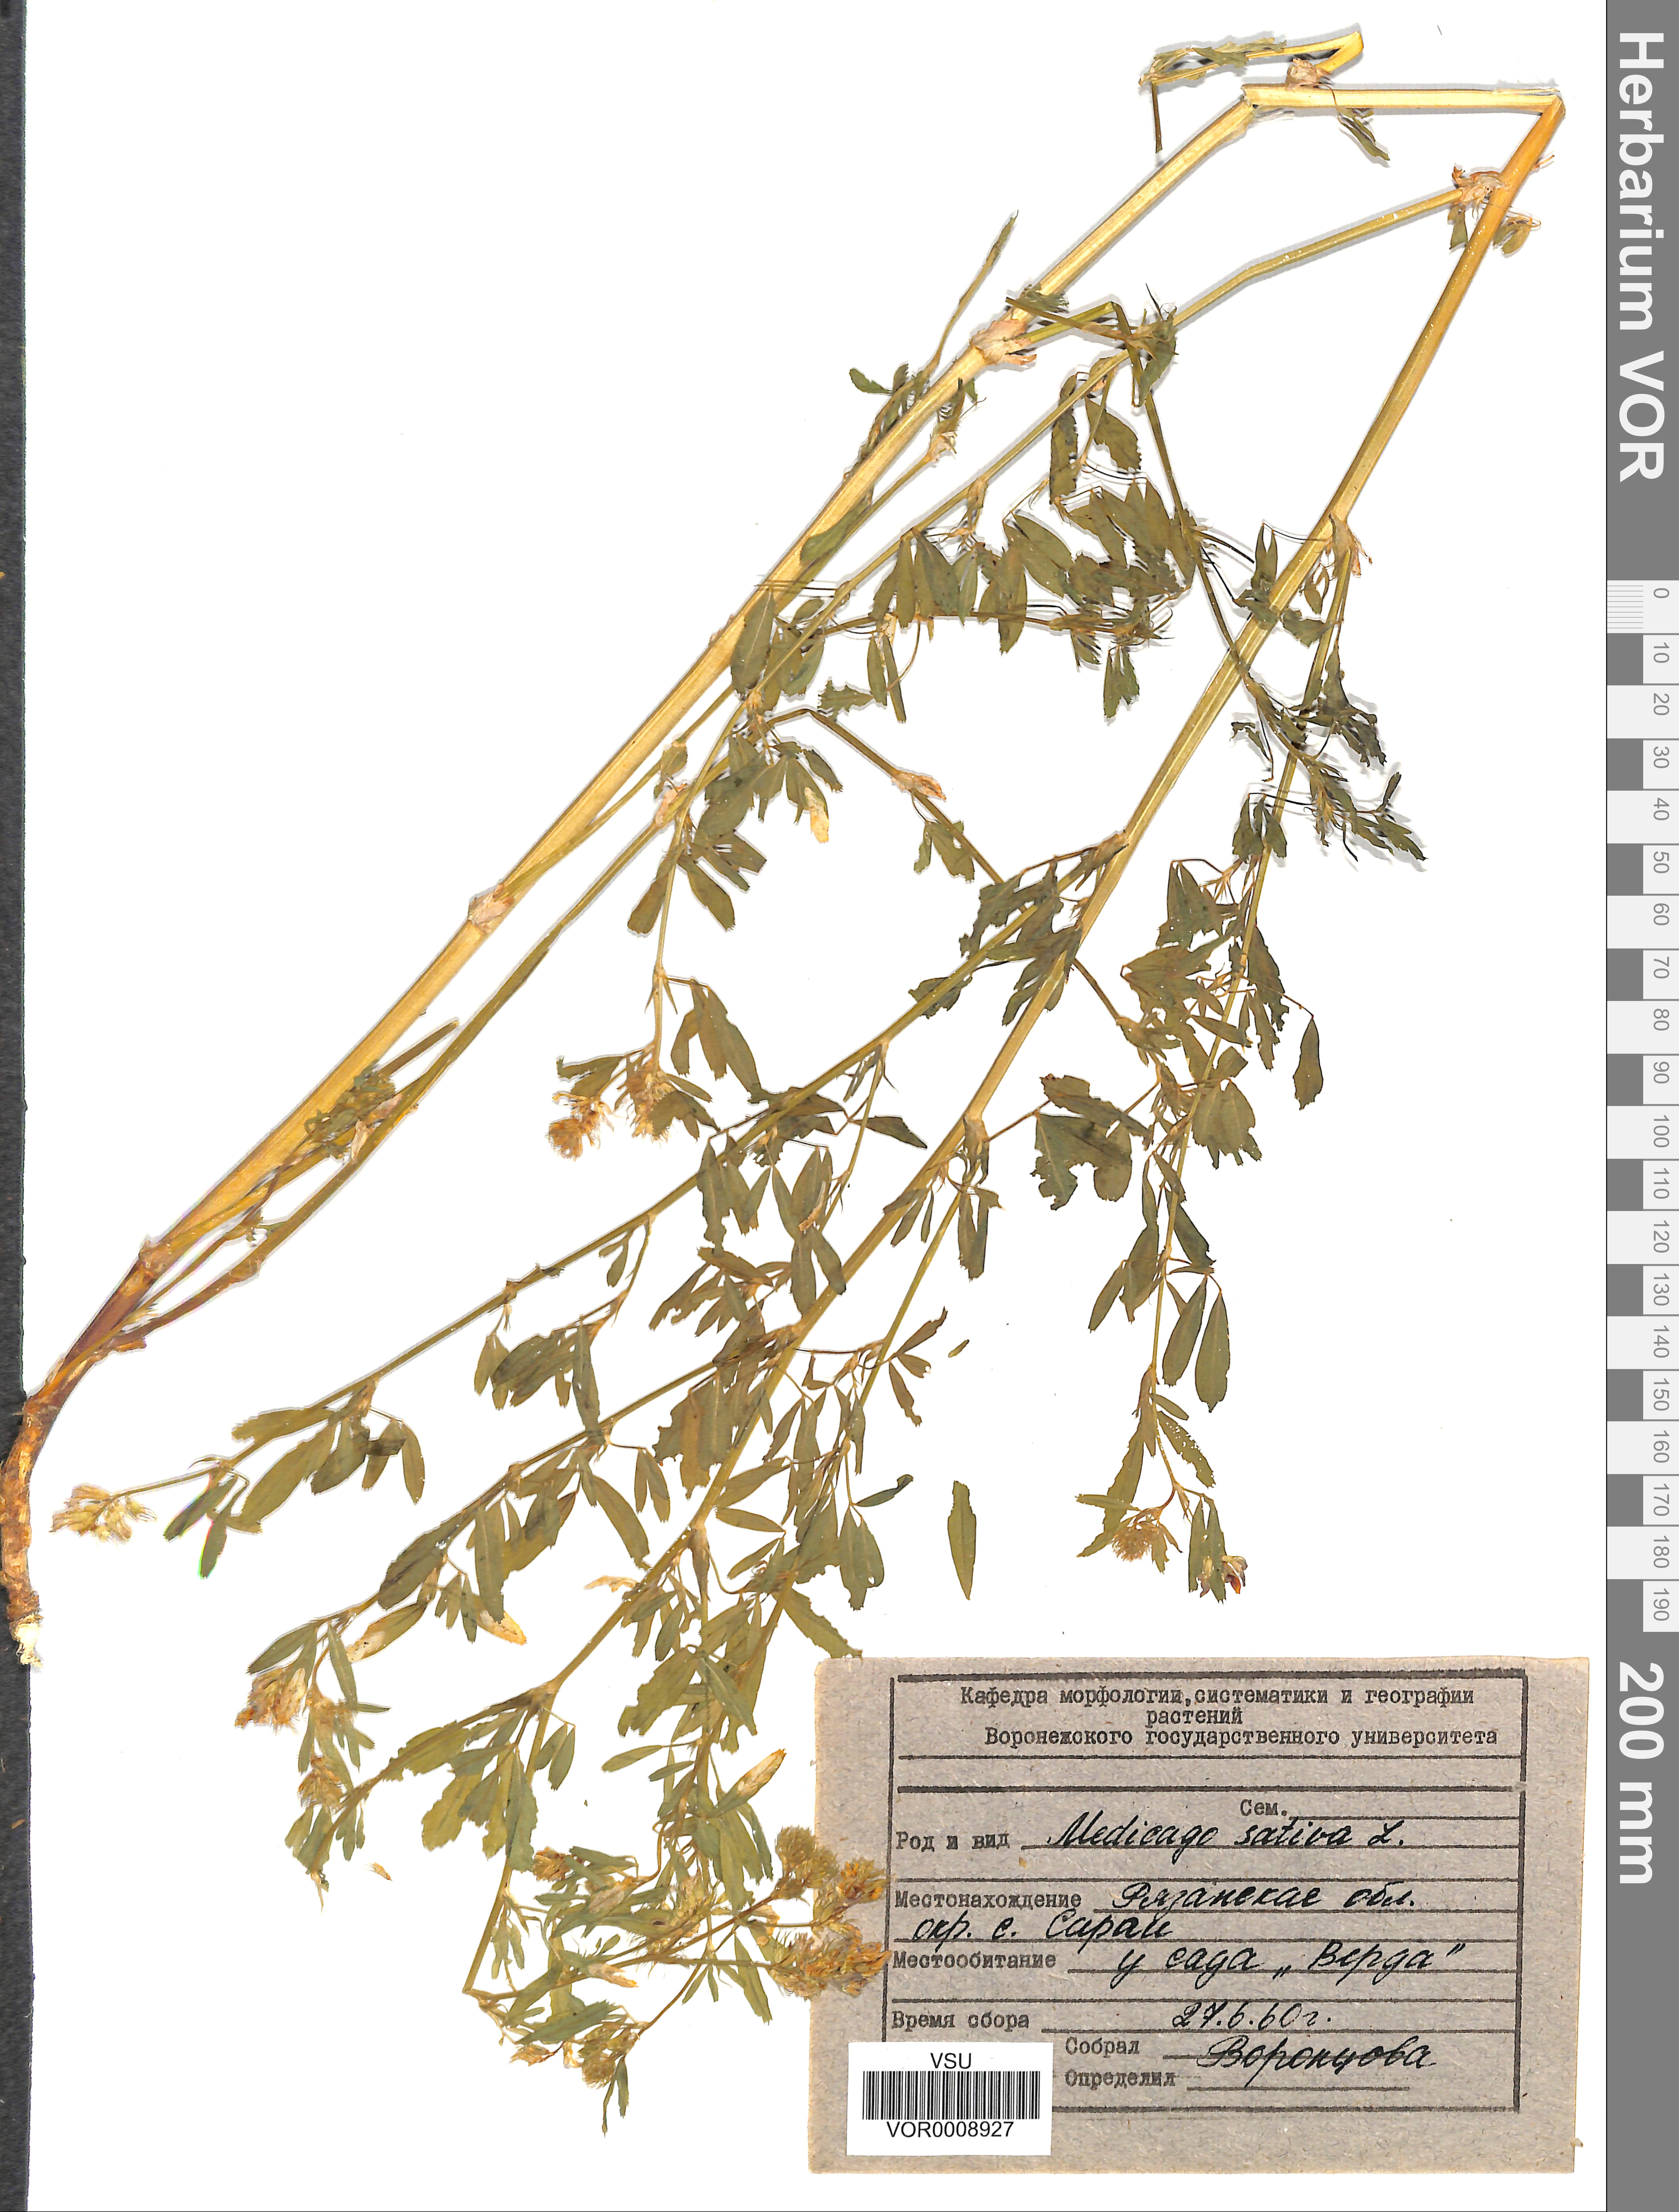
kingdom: Plantae
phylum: Tracheophyta
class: Magnoliopsida
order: Fabales
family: Fabaceae
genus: Medicago
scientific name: Medicago sativa
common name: Alfalfa
